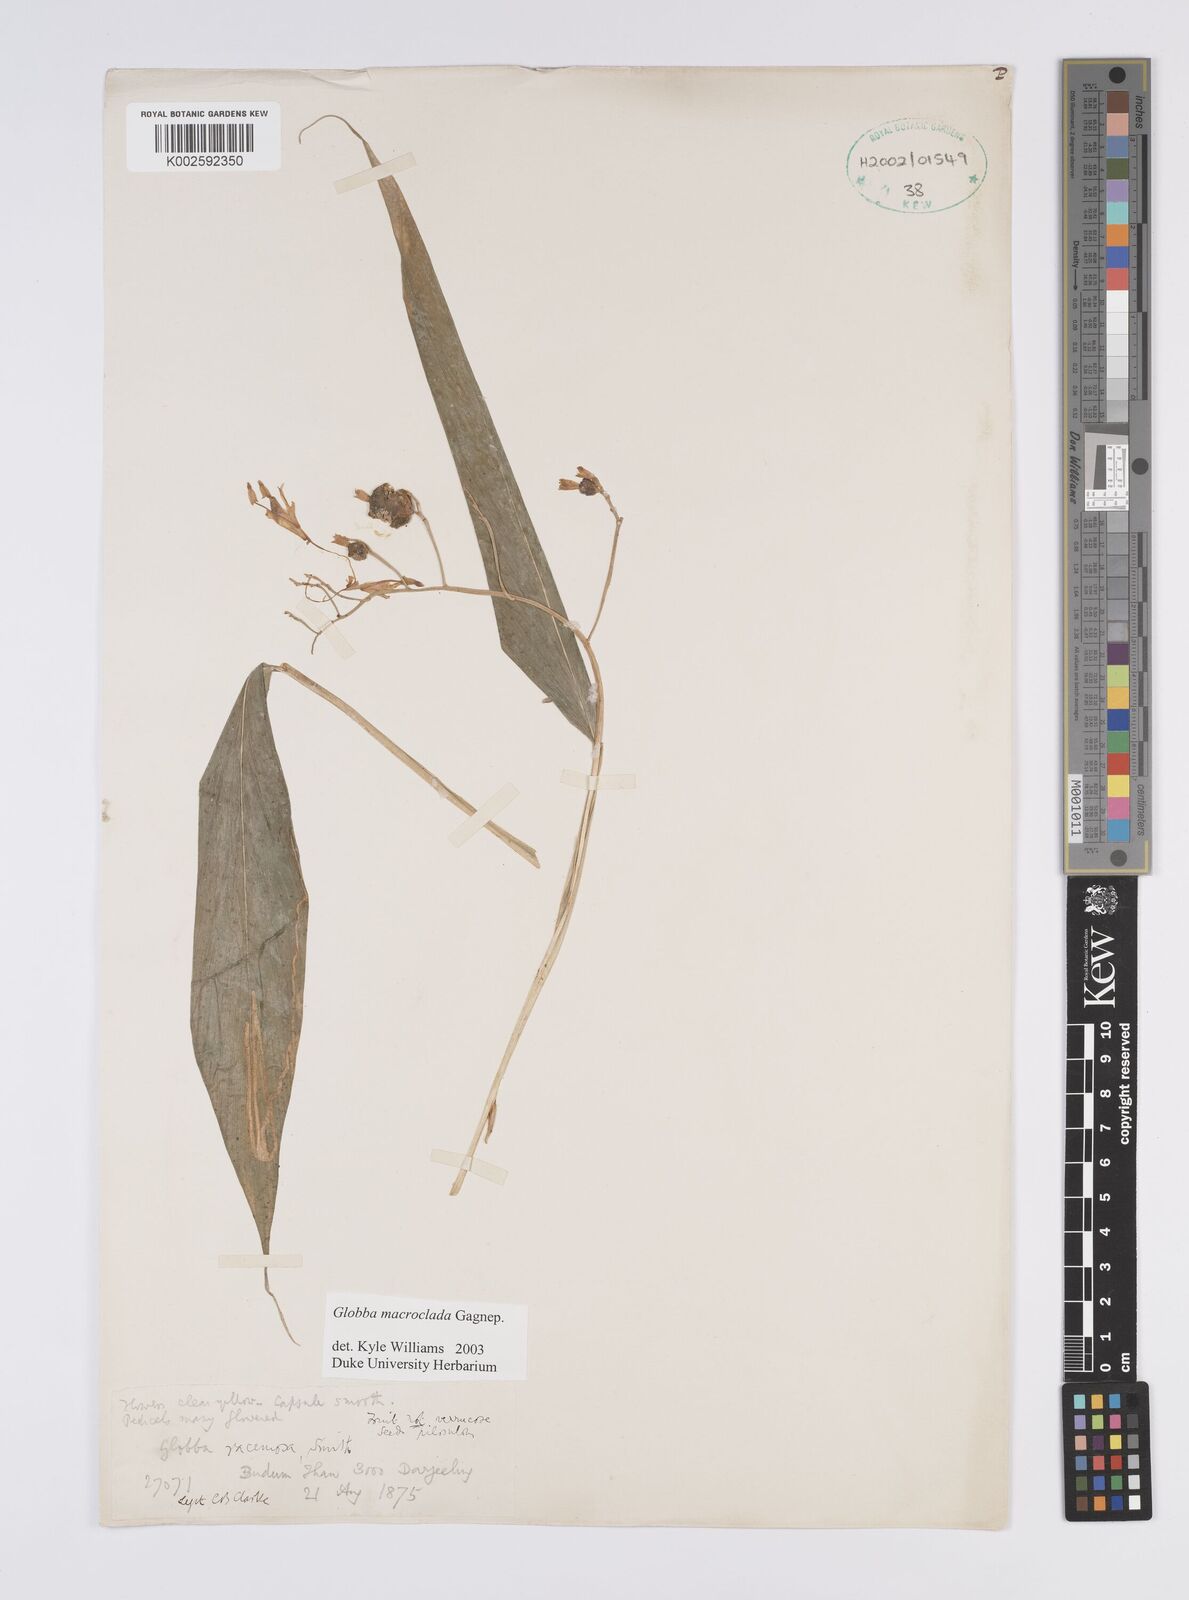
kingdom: Plantae
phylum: Tracheophyta
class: Liliopsida
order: Zingiberales
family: Zingiberaceae
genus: Globba
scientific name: Globba macroclada
